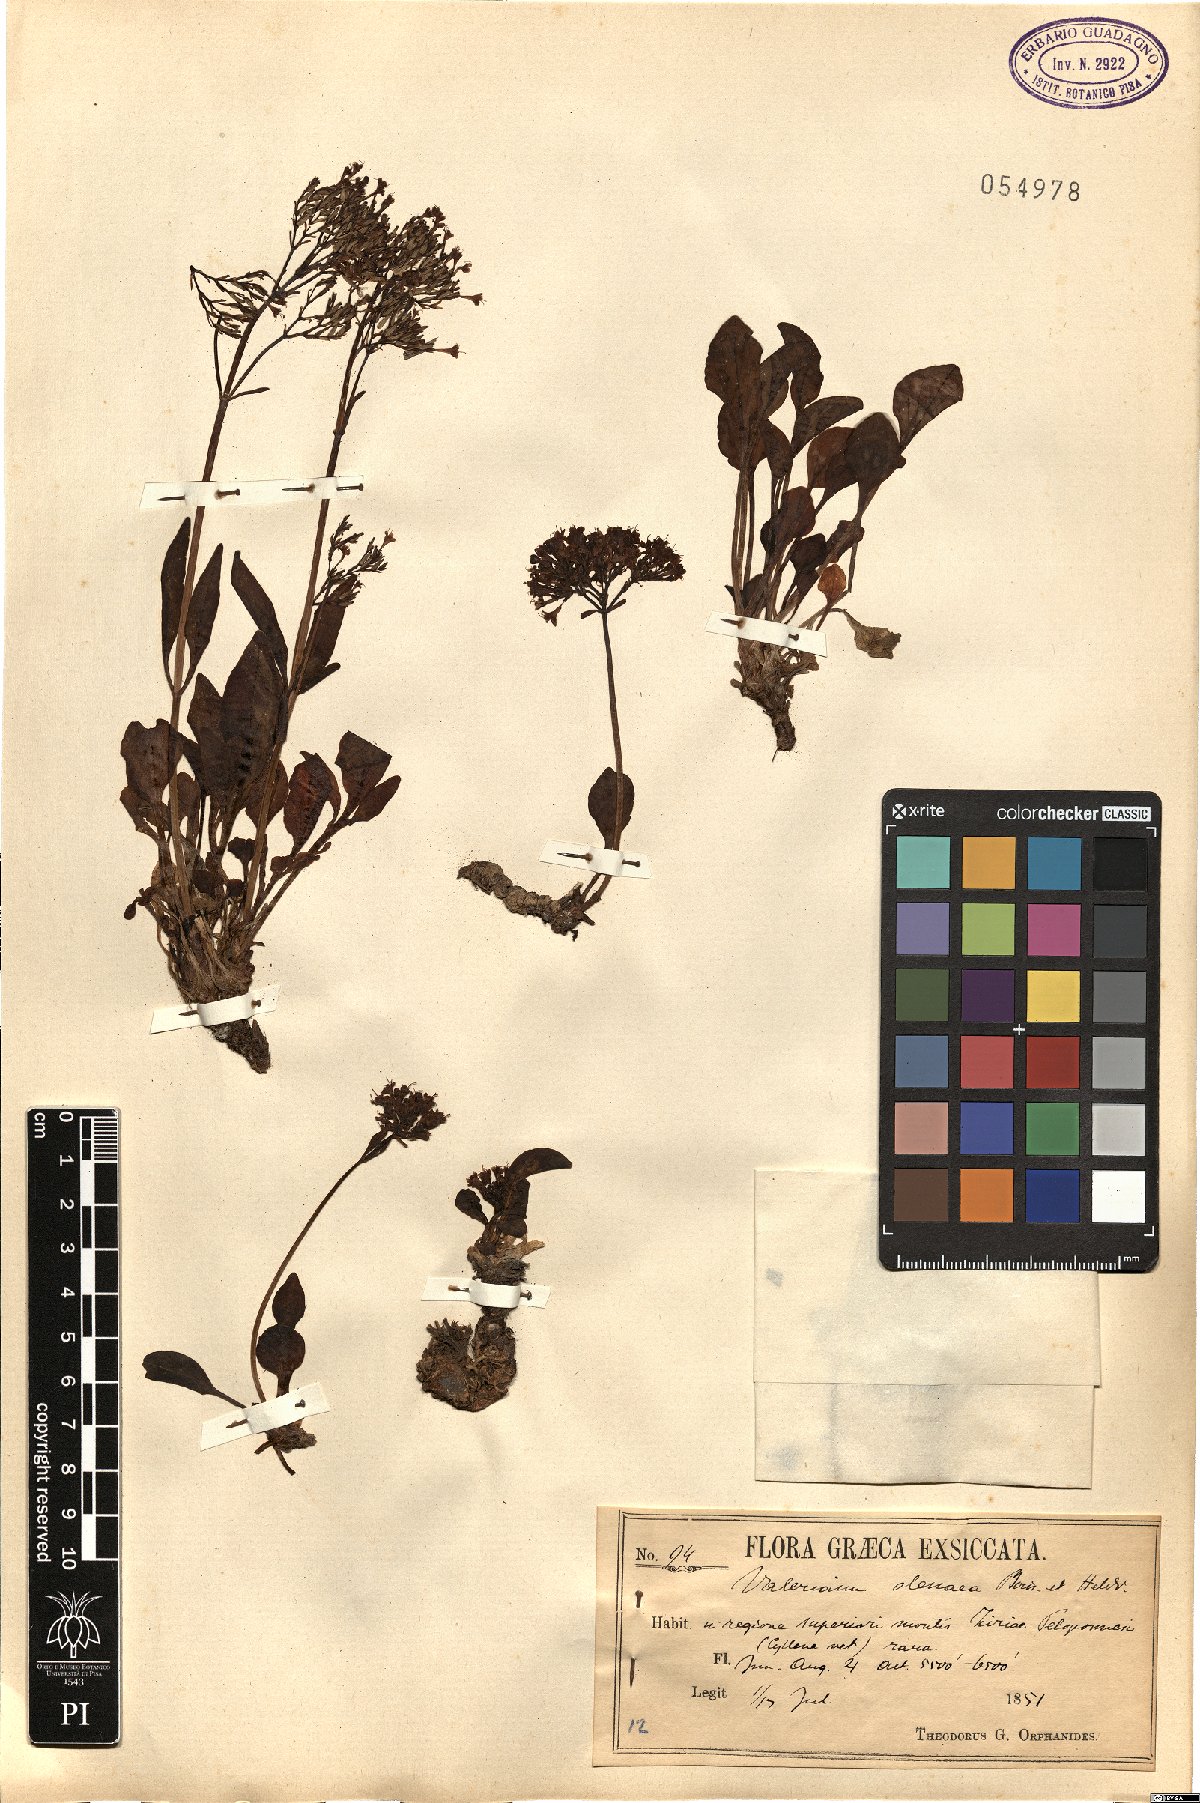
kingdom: Plantae
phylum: Tracheophyta
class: Magnoliopsida
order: Dipsacales
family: Caprifoliaceae
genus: Valeriana
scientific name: Valeriana olenaea
